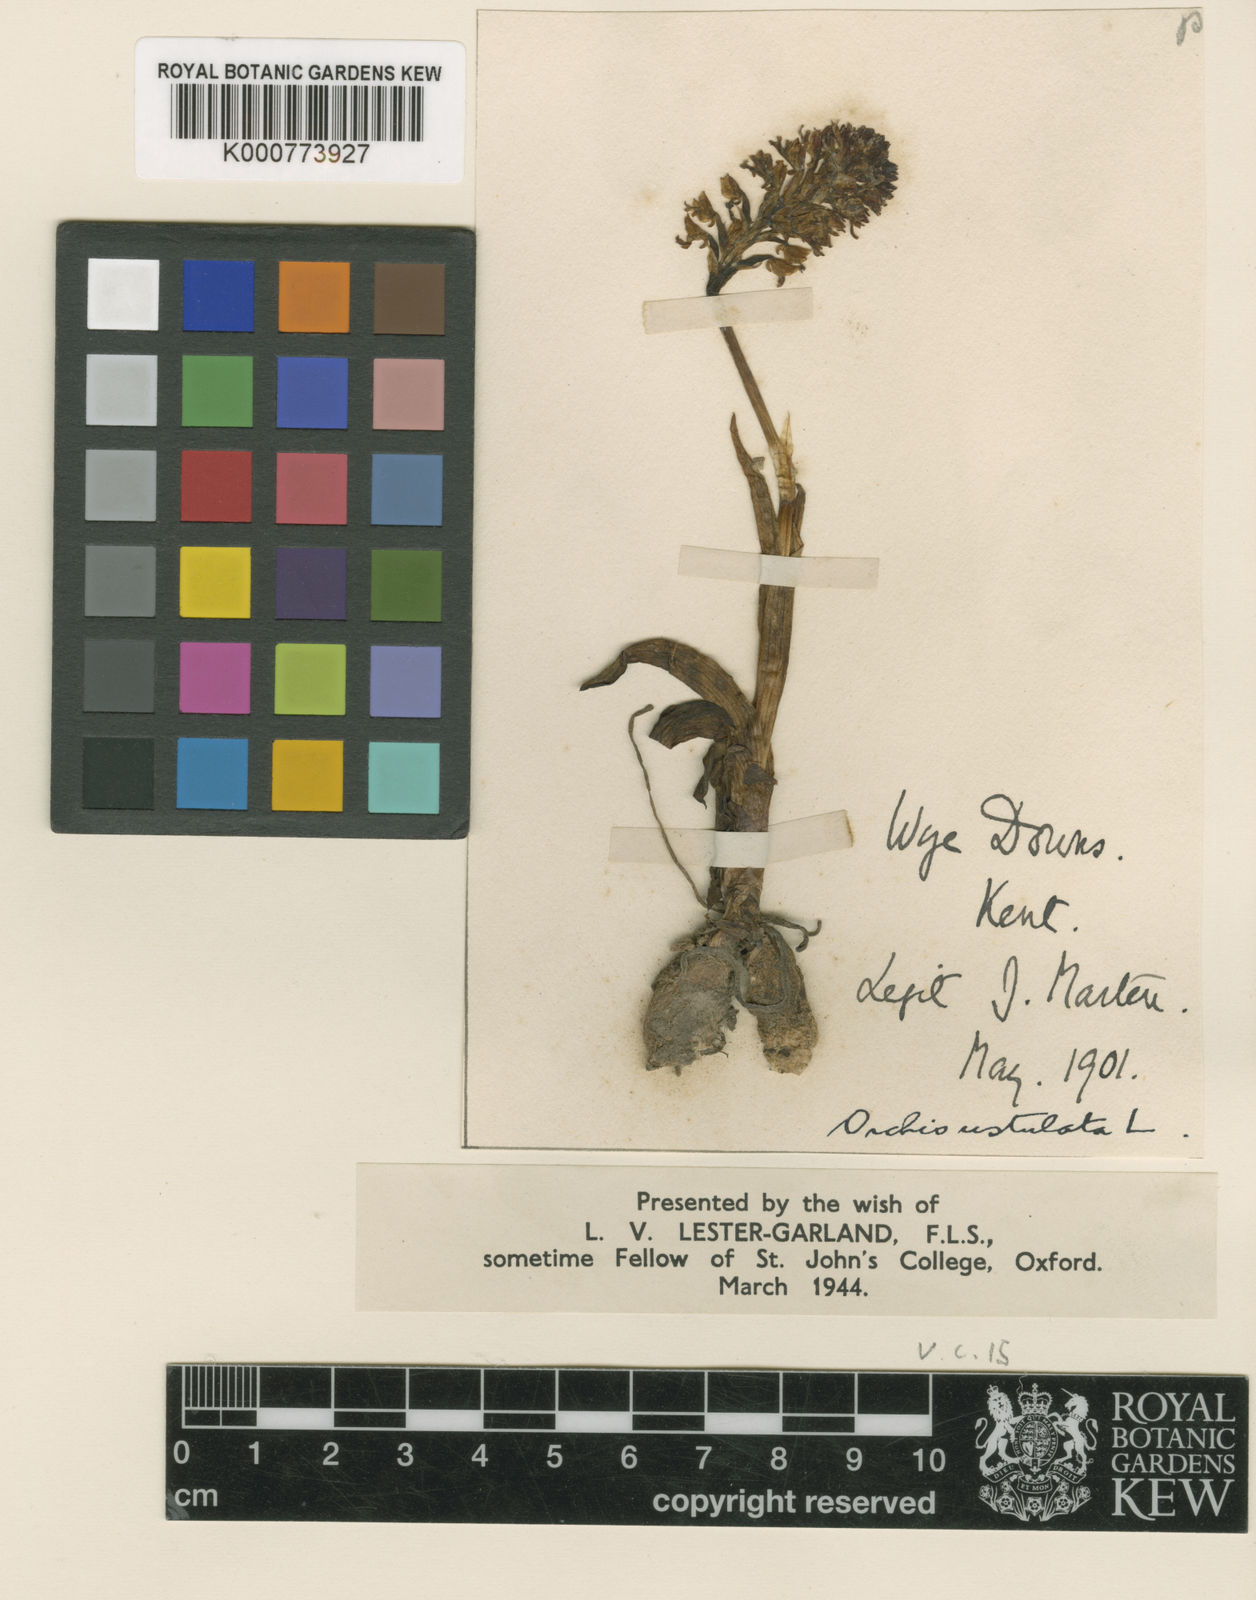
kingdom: Plantae
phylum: Tracheophyta
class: Liliopsida
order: Asparagales
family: Orchidaceae
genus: Neotinea
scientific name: Neotinea ustulata
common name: Burnt orchid
